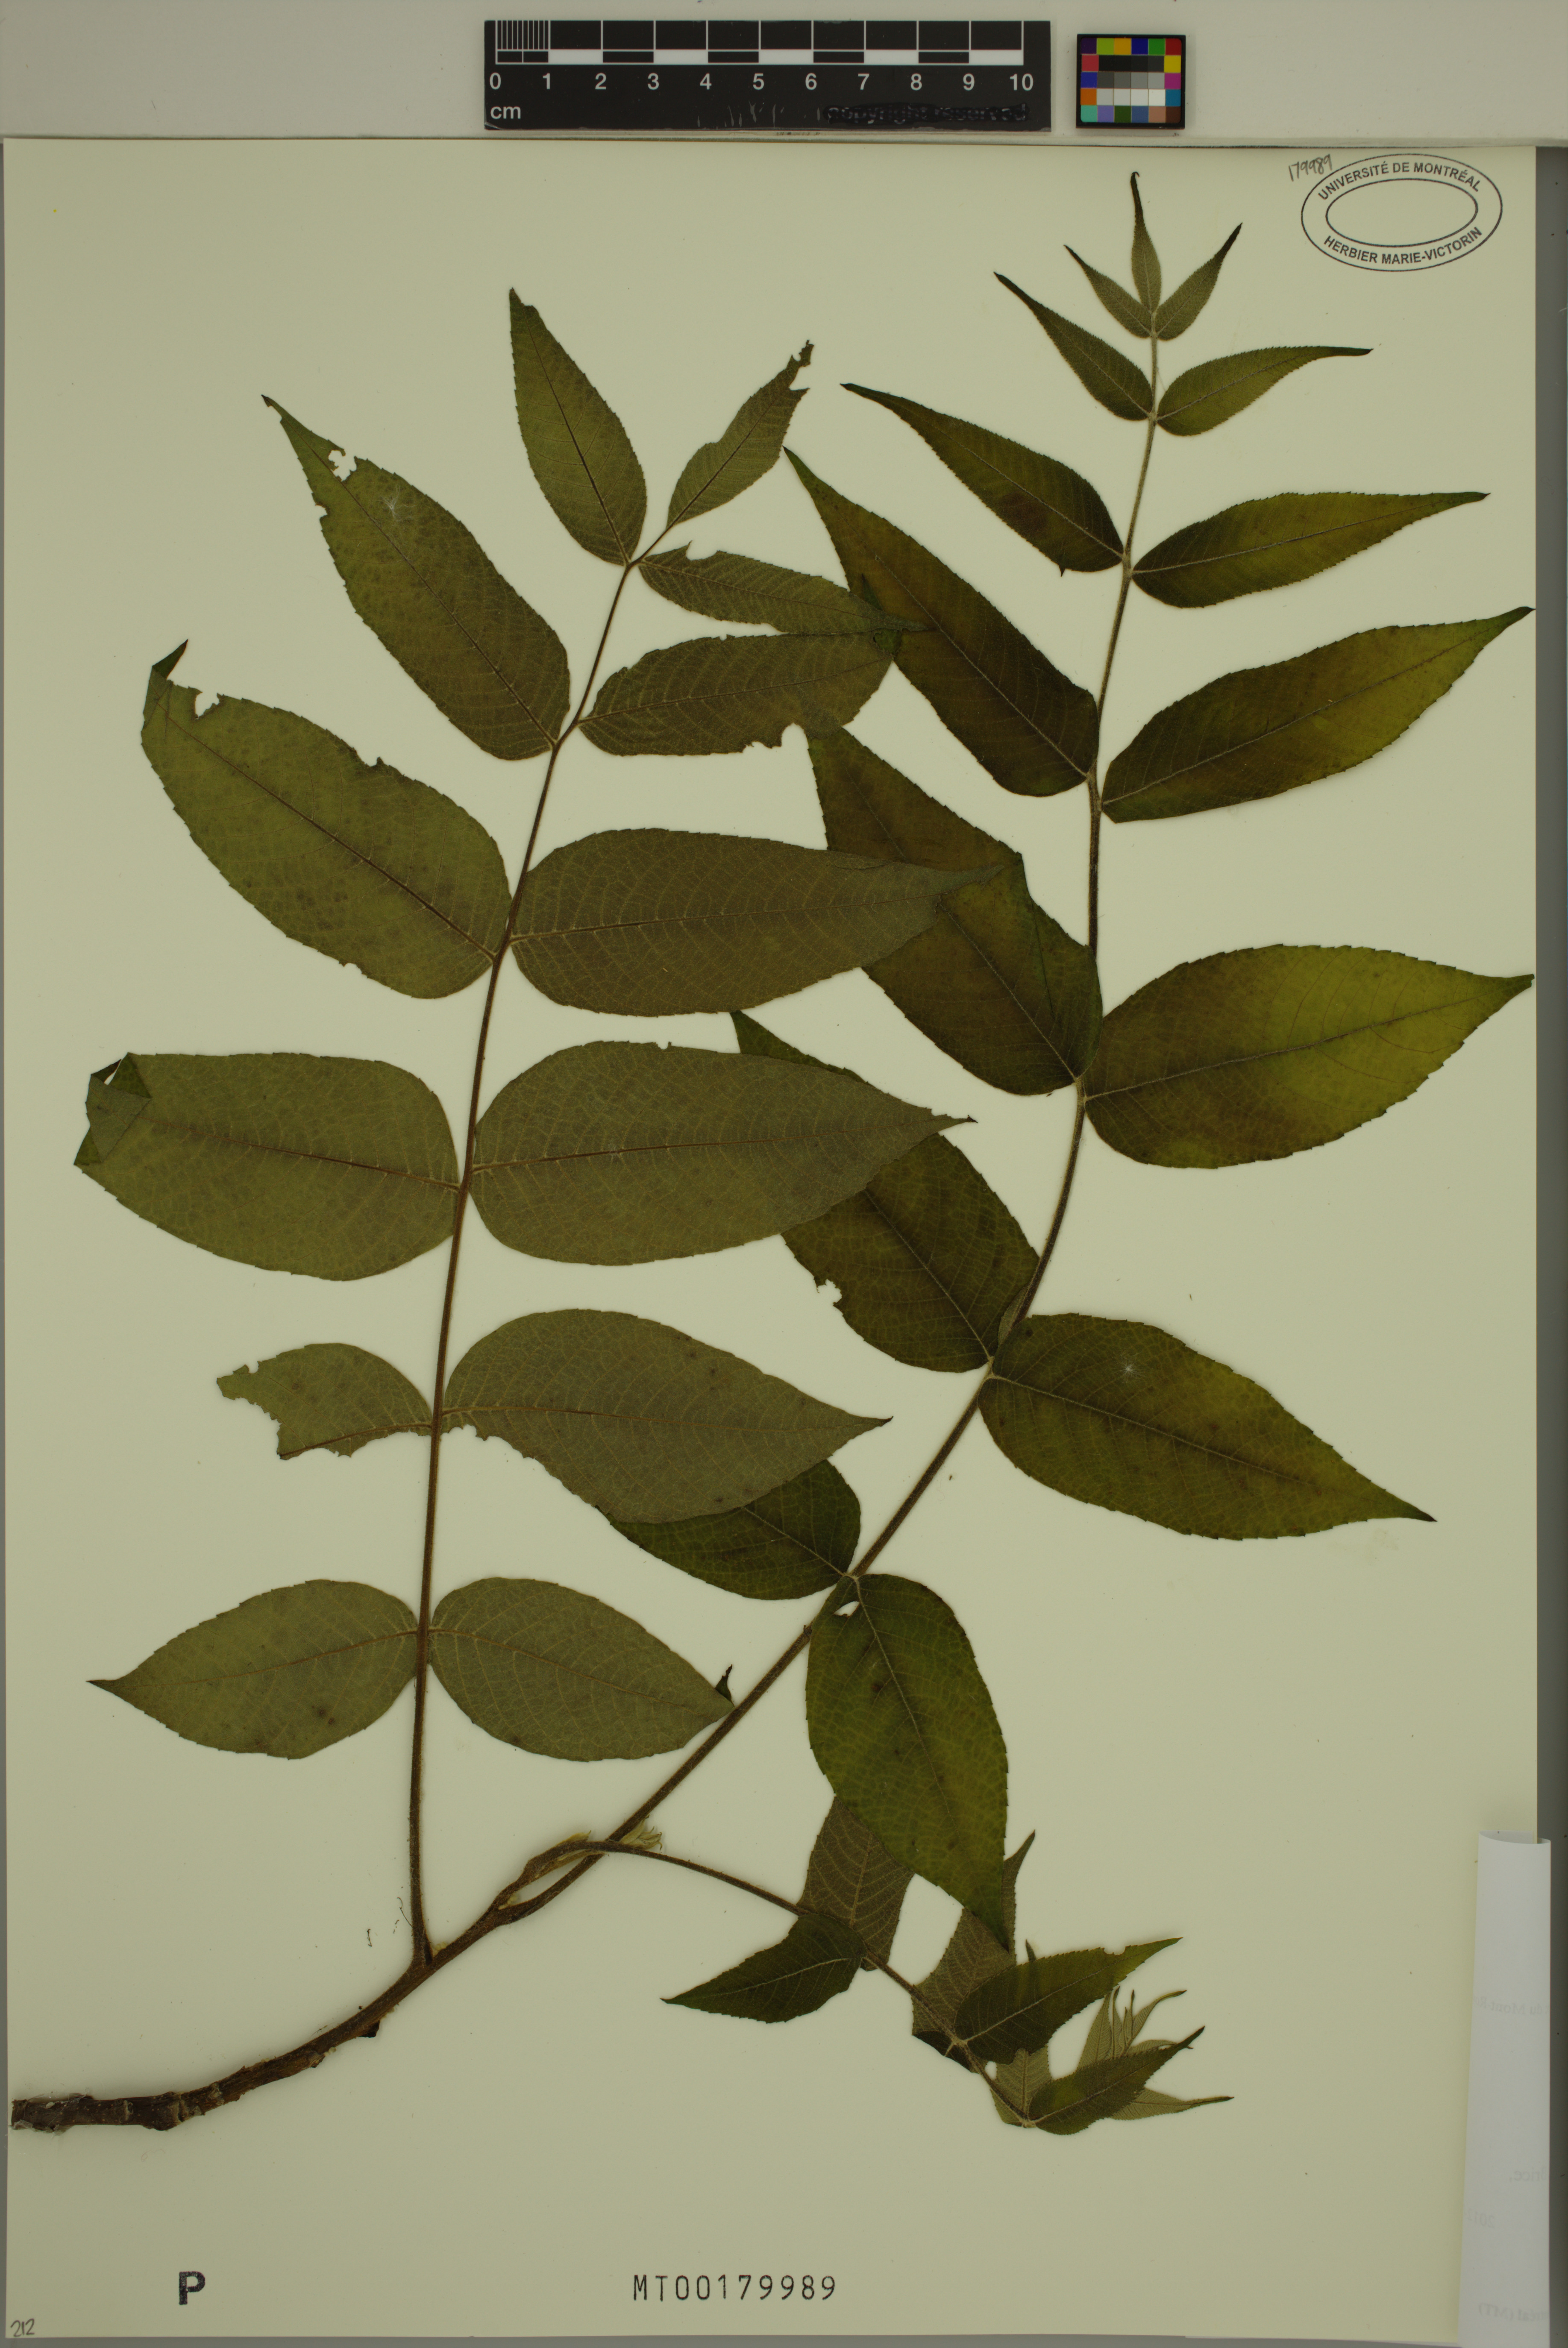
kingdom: Plantae
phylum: Tracheophyta
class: Magnoliopsida
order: Fagales
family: Juglandaceae
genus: Juglans
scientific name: Juglans cinerea
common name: Butternut
